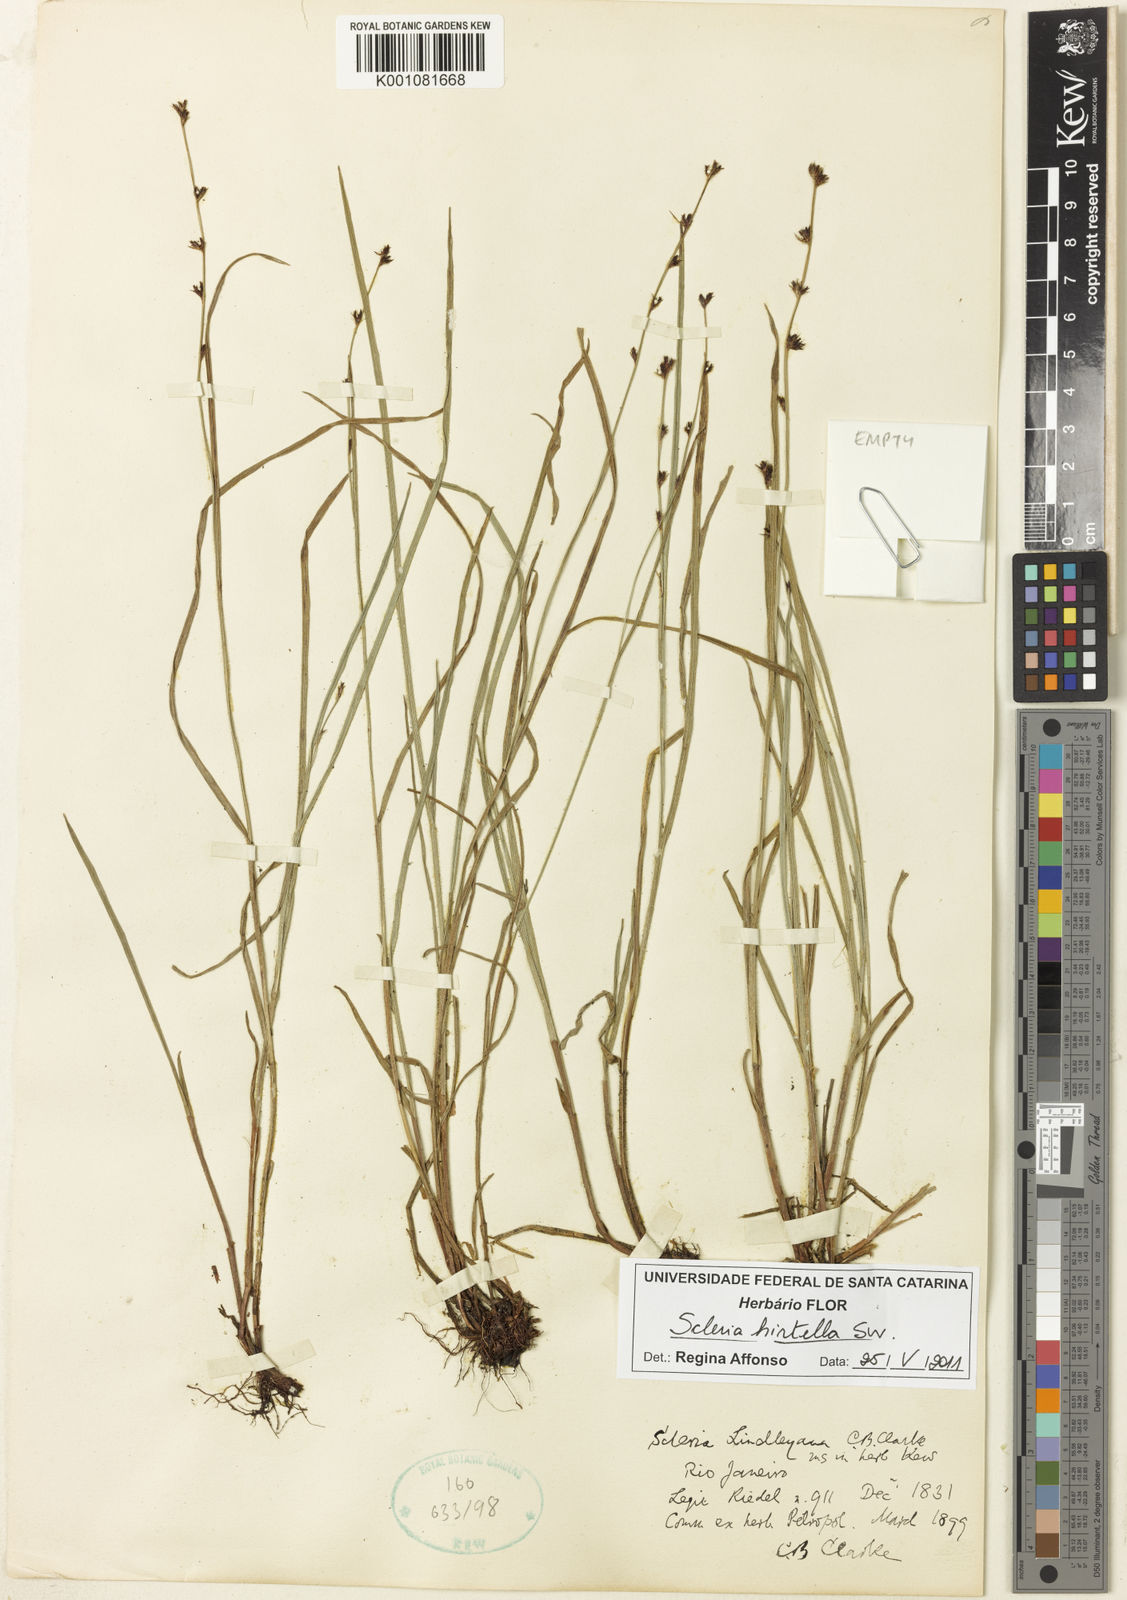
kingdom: Plantae
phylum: Tracheophyta
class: Liliopsida
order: Poales
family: Cyperaceae
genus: Scleria
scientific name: Scleria hirtella
